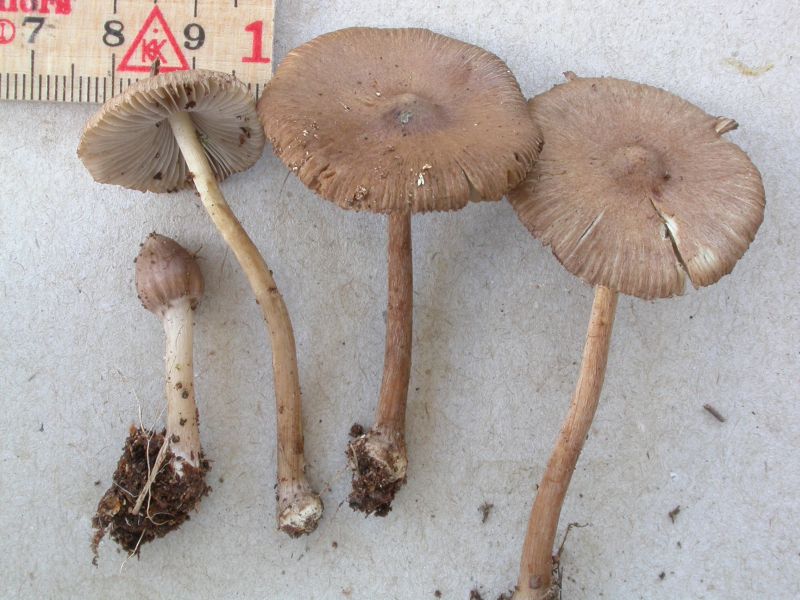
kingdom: Fungi
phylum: Basidiomycota
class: Agaricomycetes
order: Agaricales
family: Inocybaceae
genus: Inocybe
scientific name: Inocybe napipes
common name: roeknoldet trævlhat
